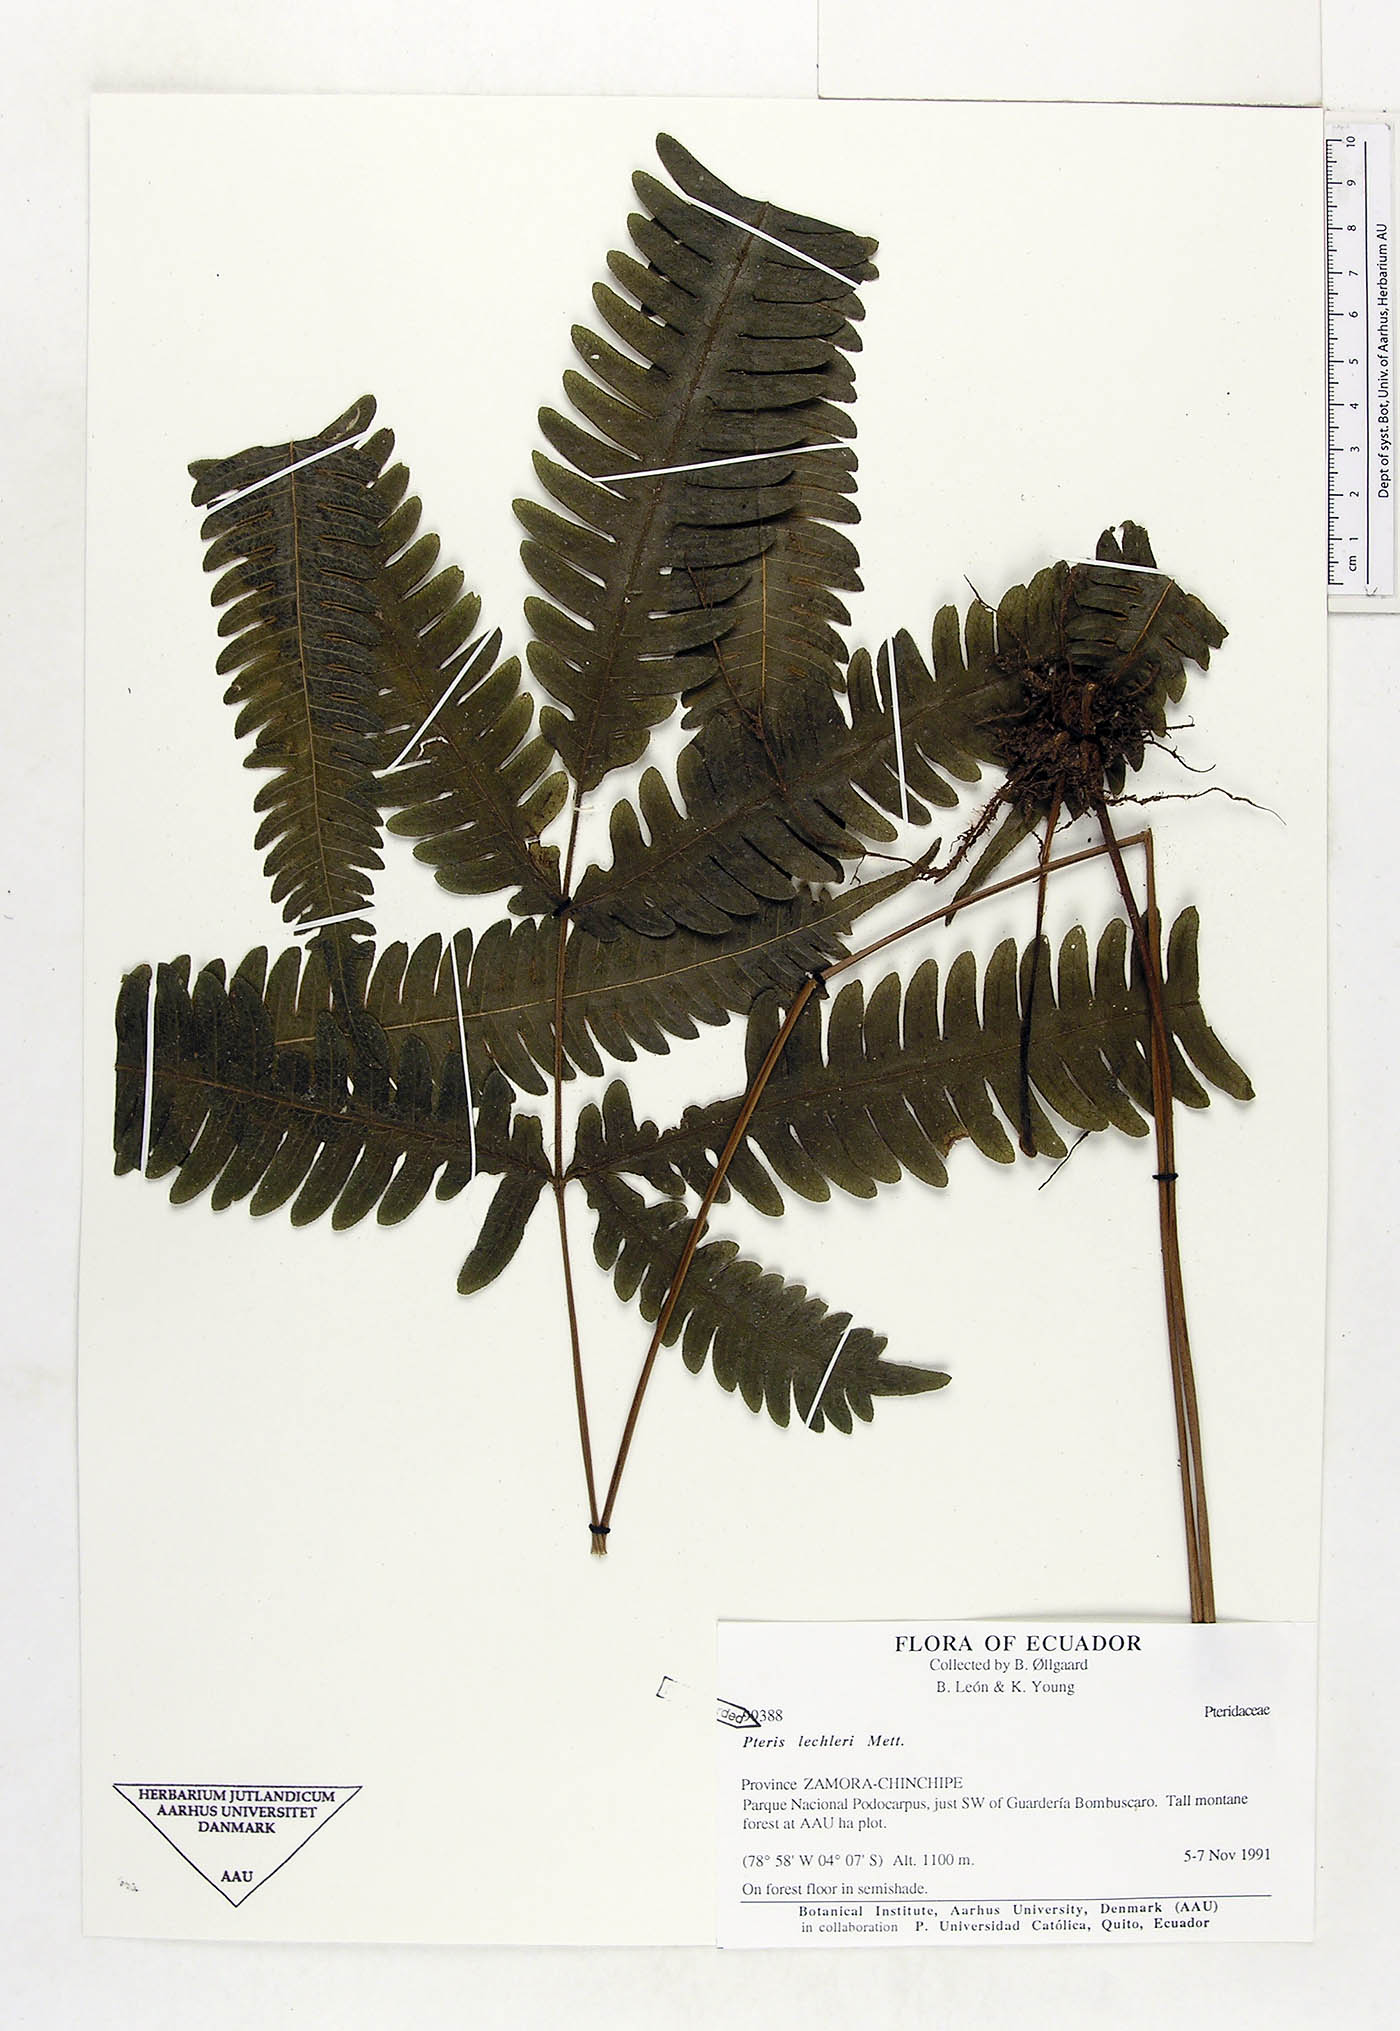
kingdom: Plantae
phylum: Tracheophyta
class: Polypodiopsida
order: Polypodiales
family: Pteridaceae
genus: Pteris
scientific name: Pteris lechleri
